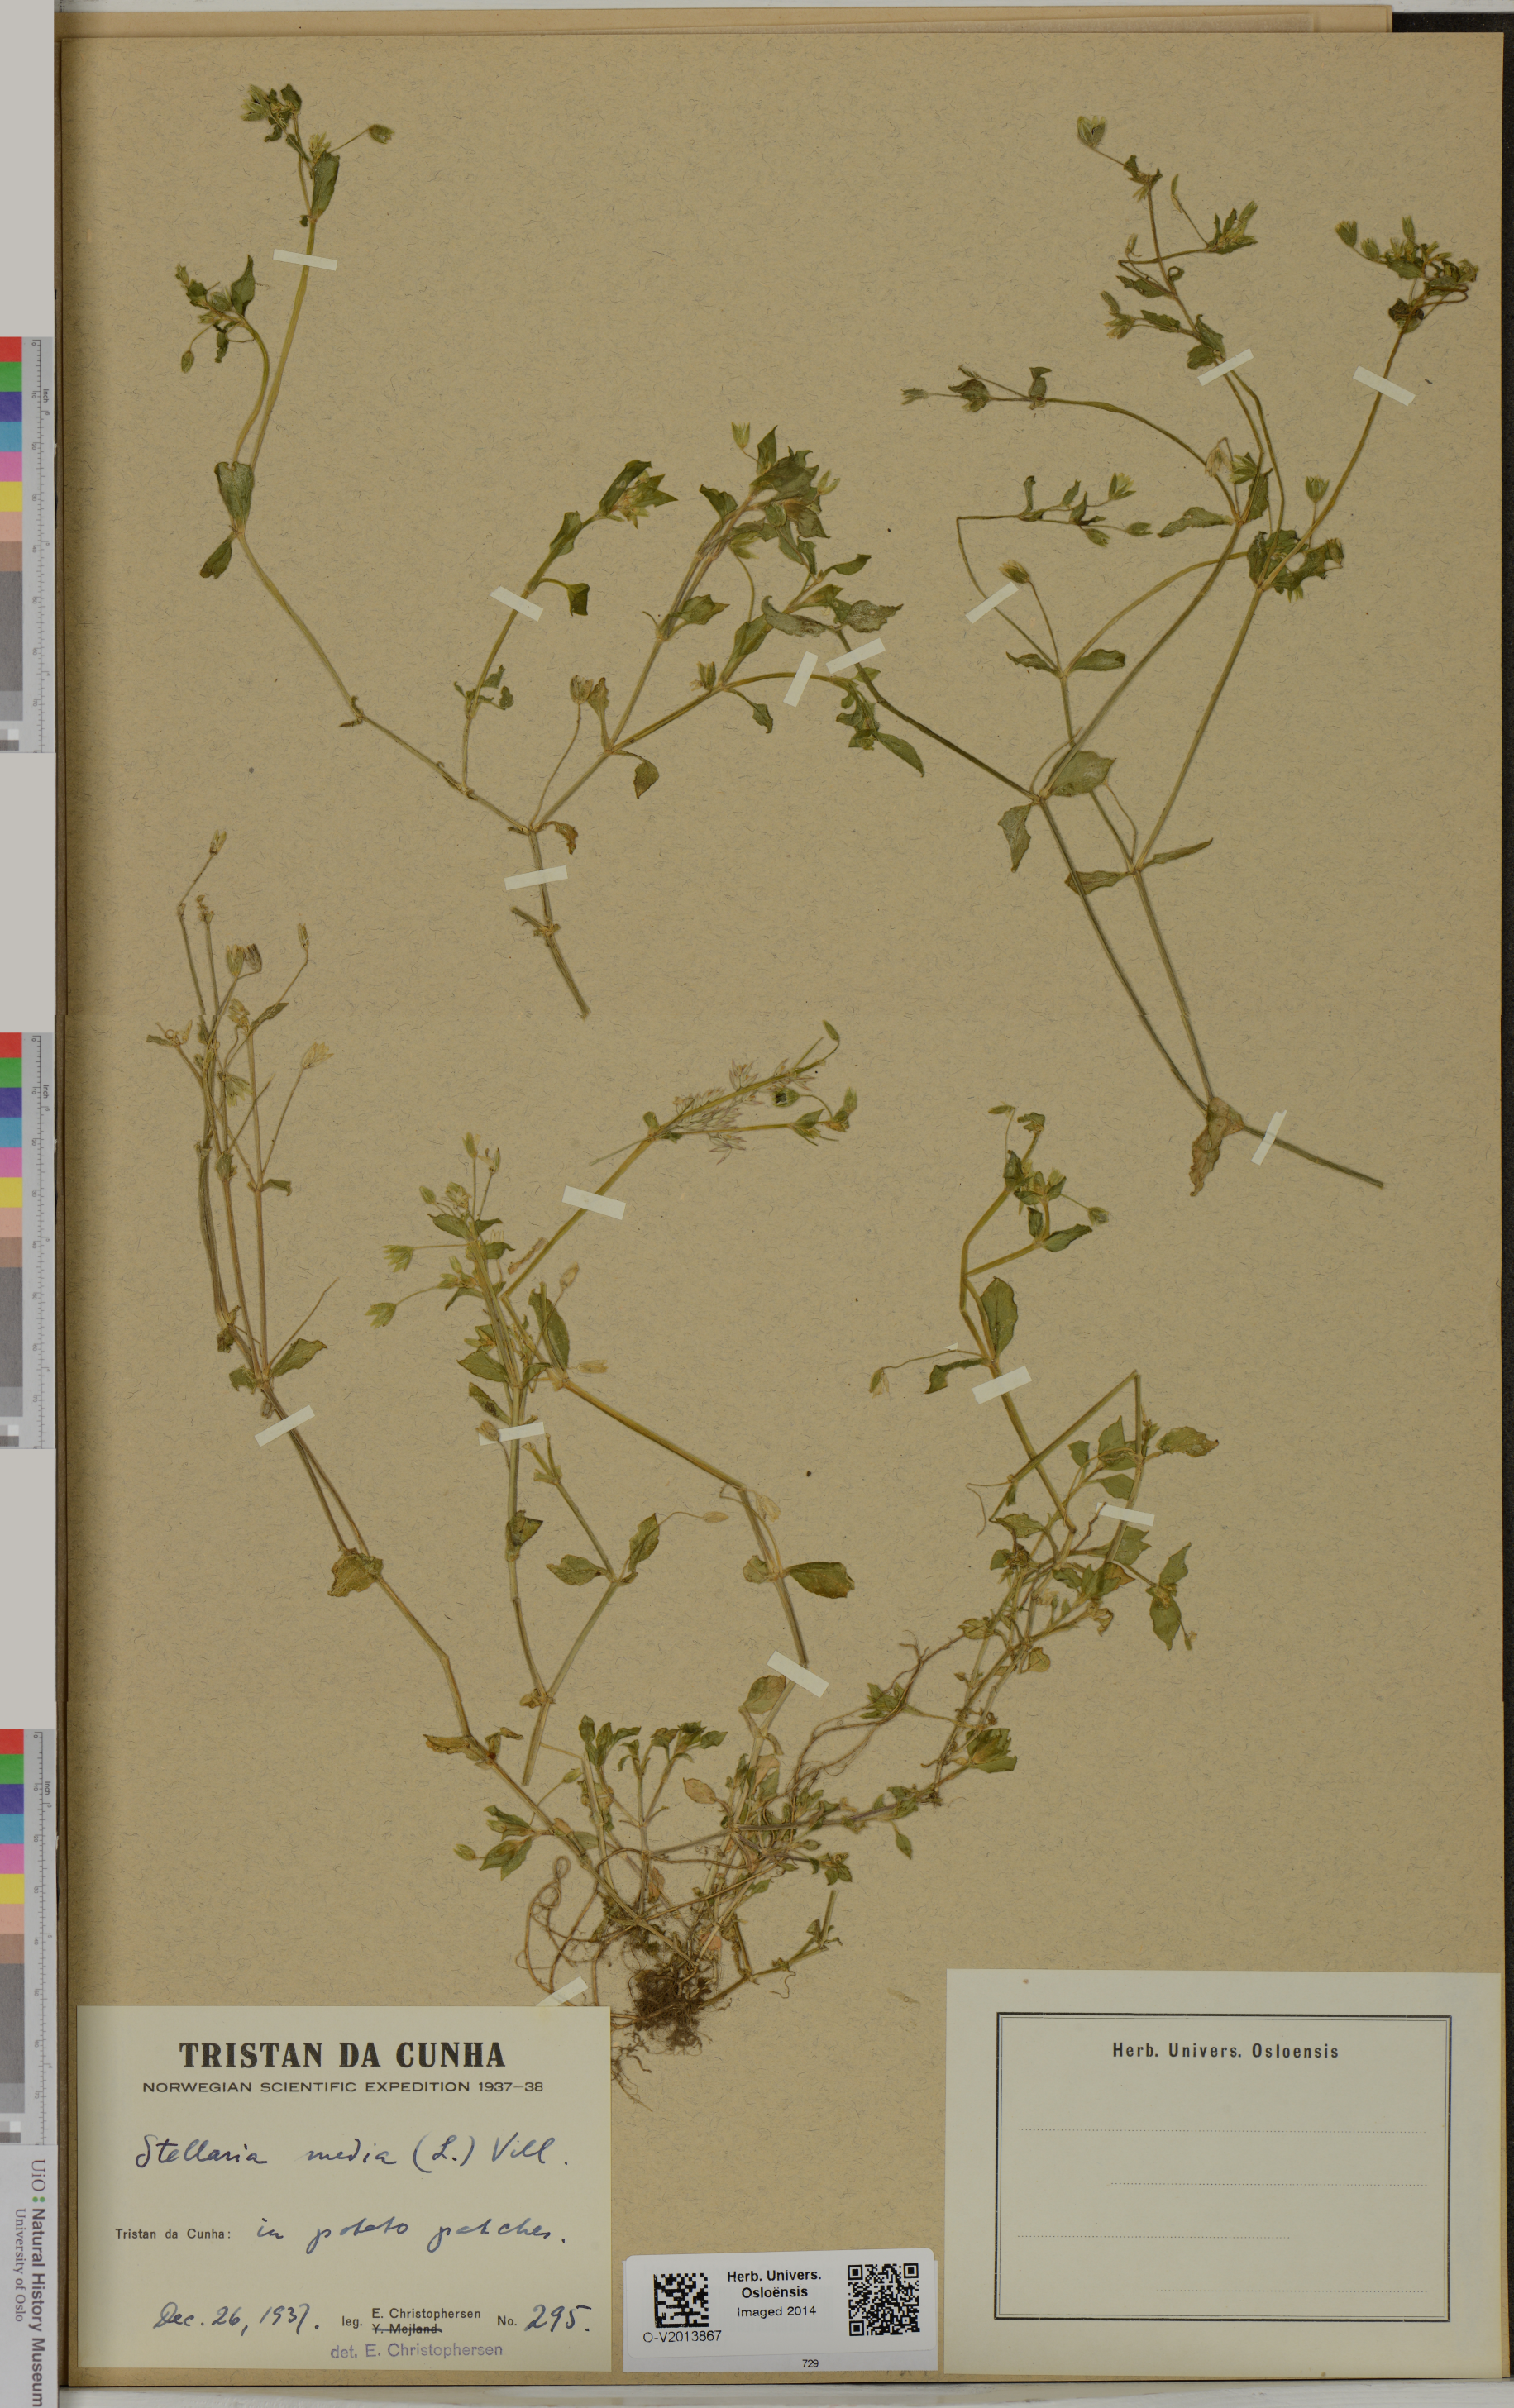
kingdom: Plantae
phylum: Tracheophyta
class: Magnoliopsida
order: Caryophyllales
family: Caryophyllaceae
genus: Stellaria
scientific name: Stellaria media
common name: Common chickweed
